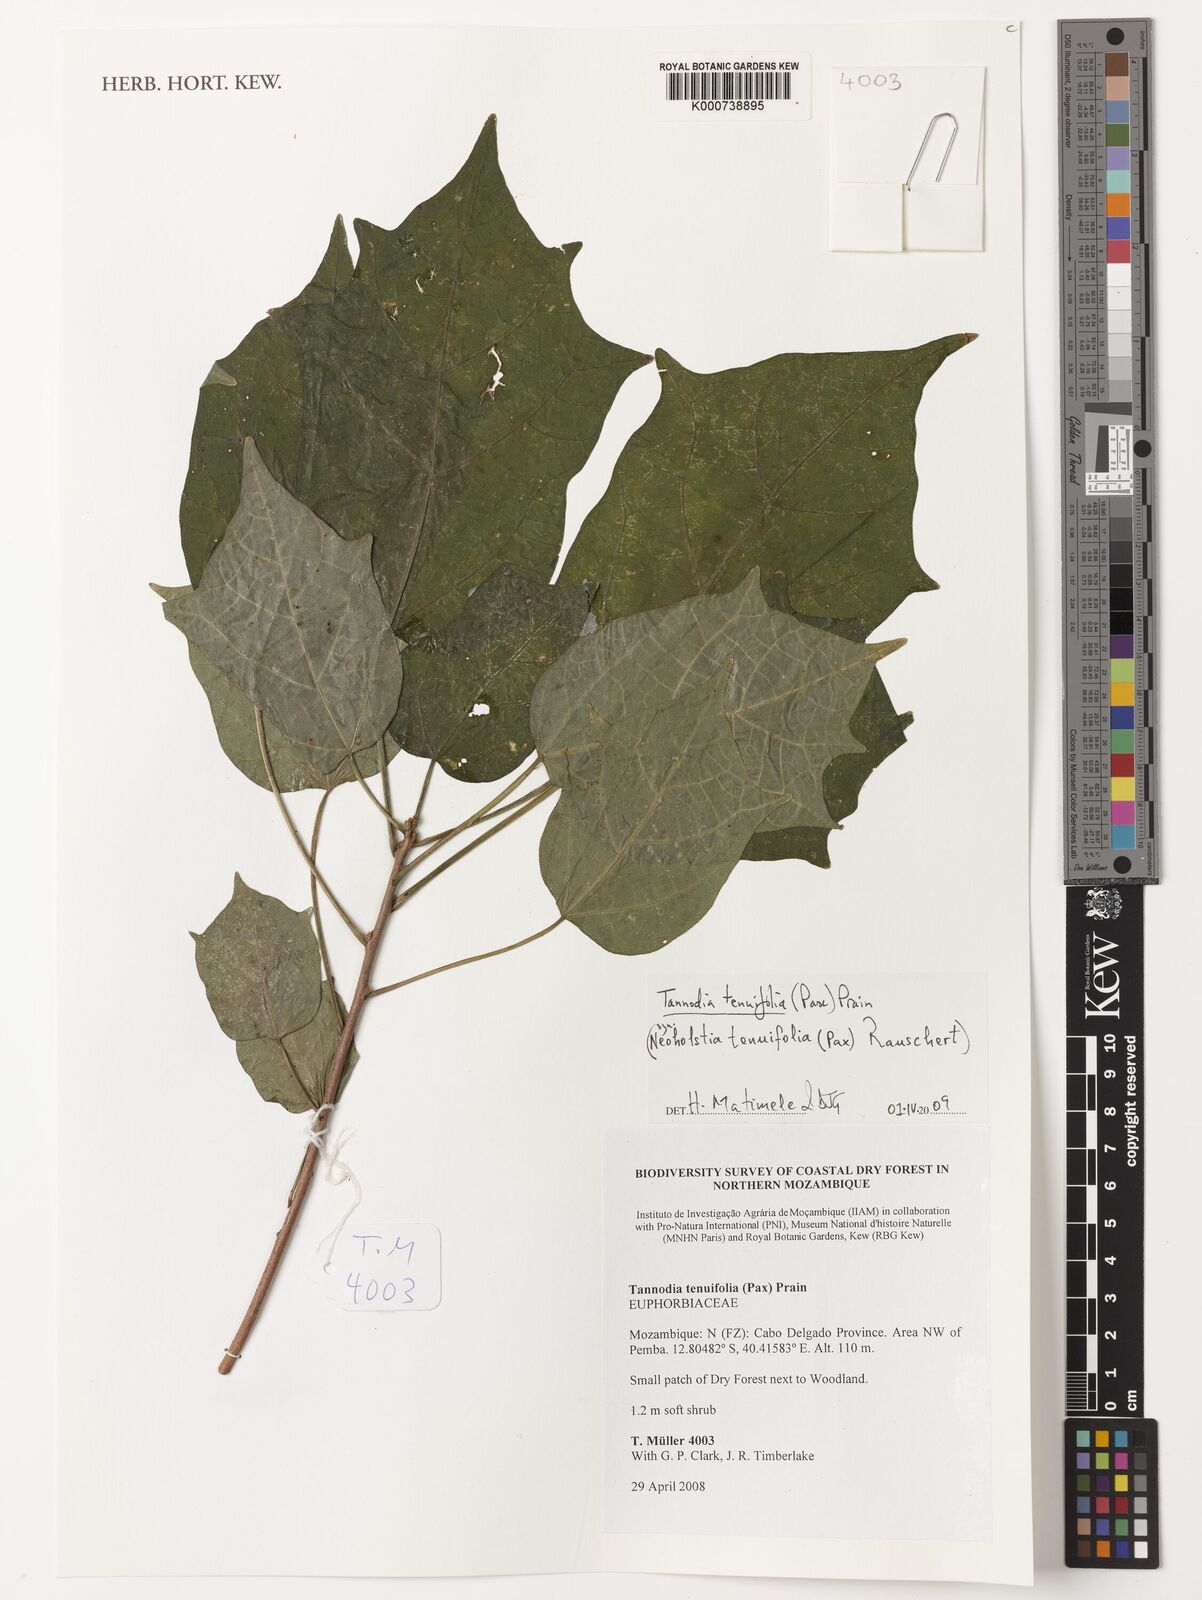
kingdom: Plantae
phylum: Tracheophyta
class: Magnoliopsida
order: Malpighiales
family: Euphorbiaceae
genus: Tannodia
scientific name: Tannodia tenuifolia
